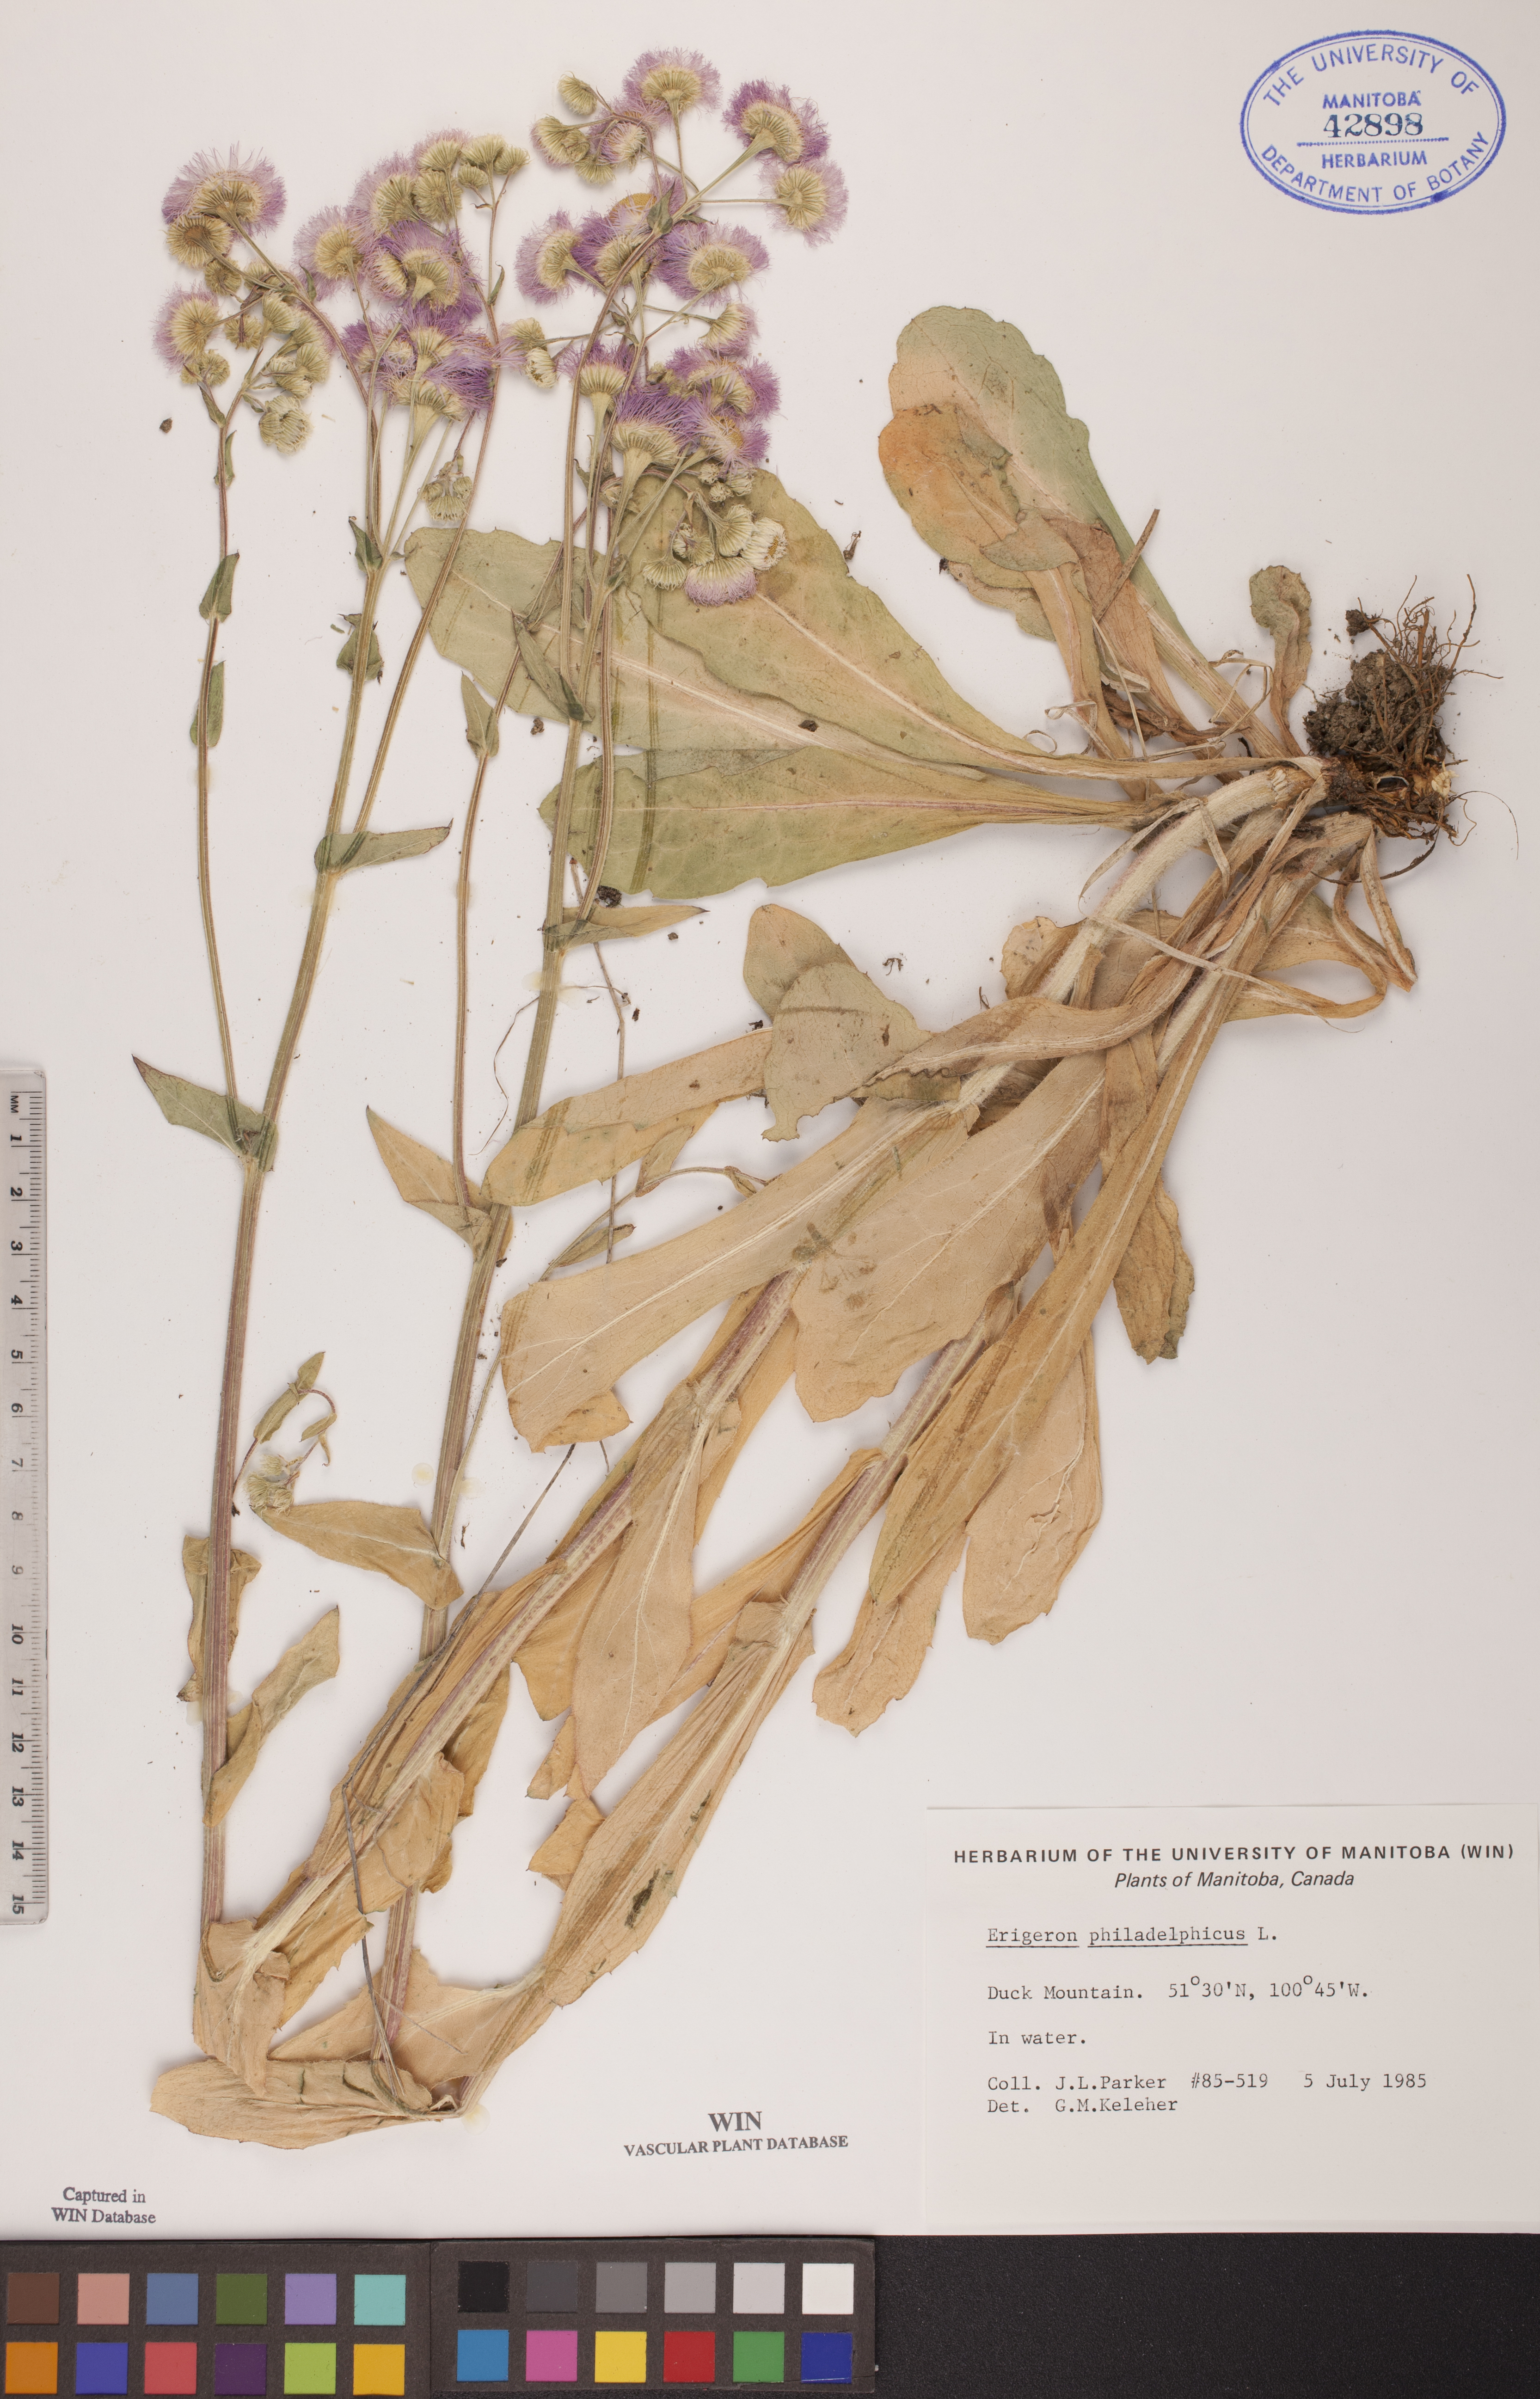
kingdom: Plantae
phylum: Tracheophyta
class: Magnoliopsida
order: Asterales
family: Asteraceae
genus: Erigeron
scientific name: Erigeron philadelphicus
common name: Robin's-plantain
